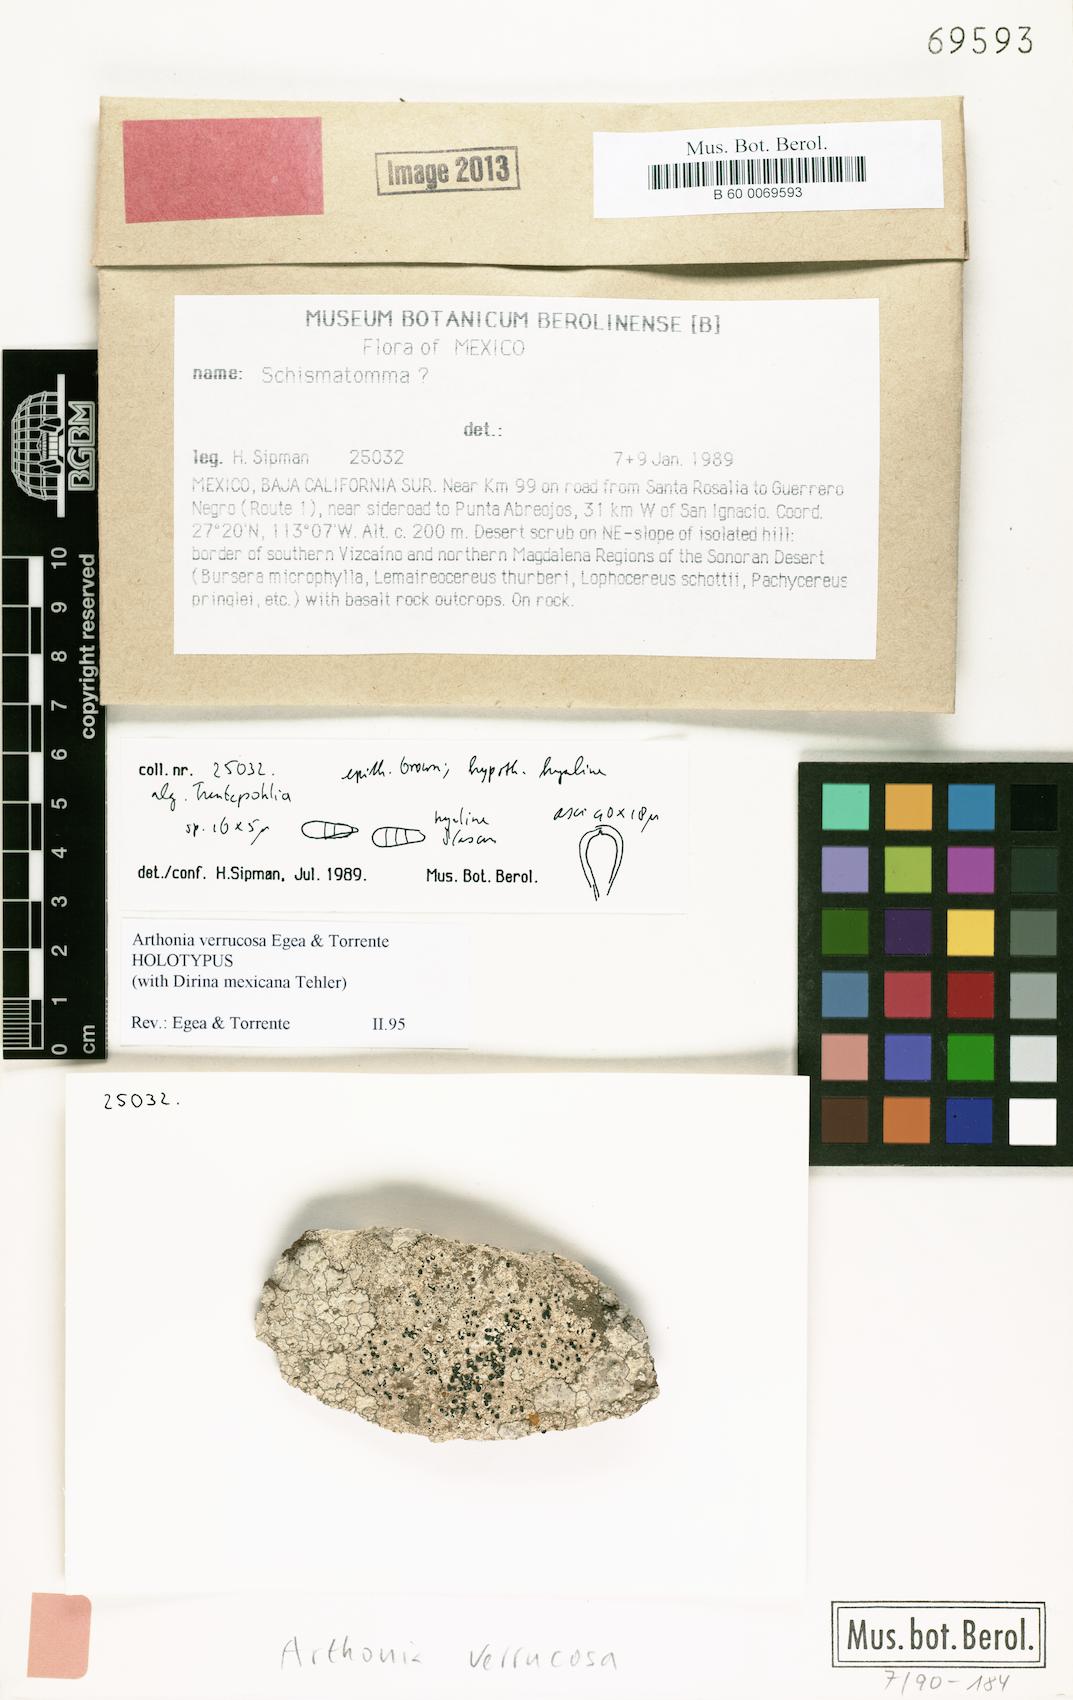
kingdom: Fungi
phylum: Ascomycota
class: Arthoniomycetes
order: Arthoniales
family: Arthoniaceae
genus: Arthonia
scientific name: Arthonia
